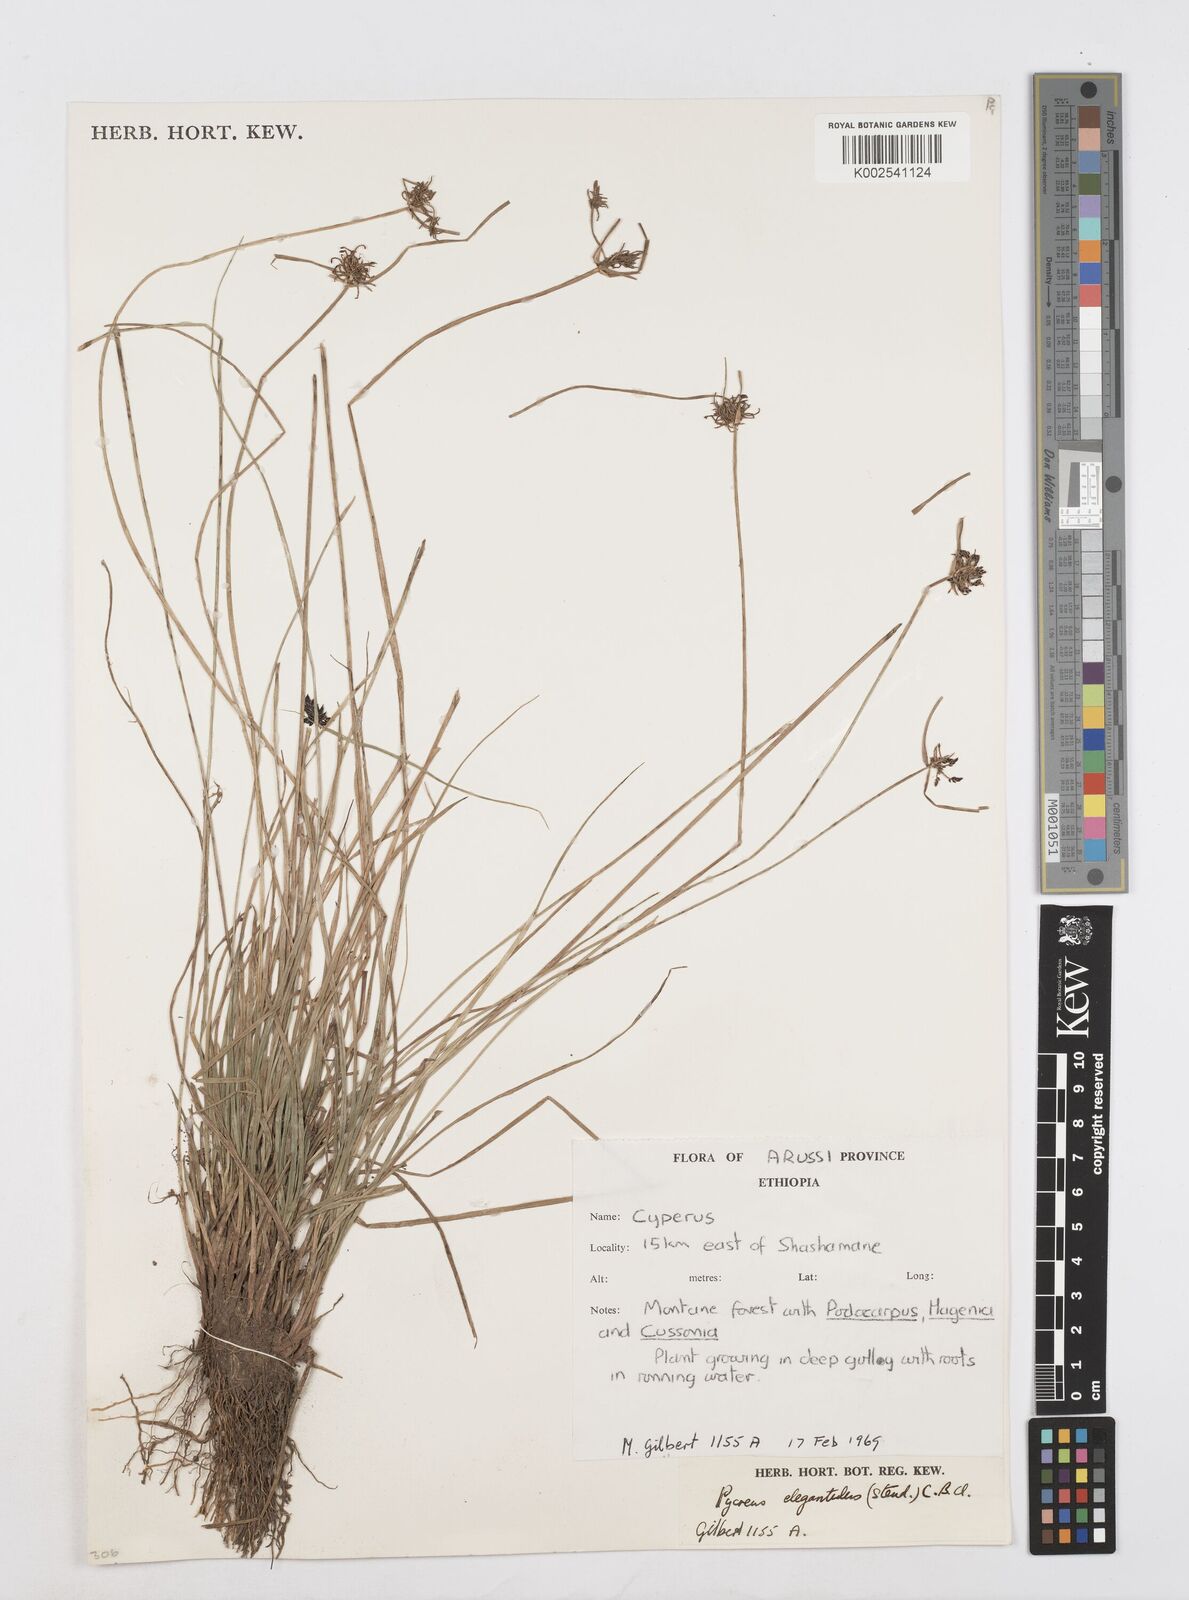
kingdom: Plantae
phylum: Tracheophyta
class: Liliopsida
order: Poales
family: Cyperaceae
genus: Cyperus
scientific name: Cyperus elegantulus
